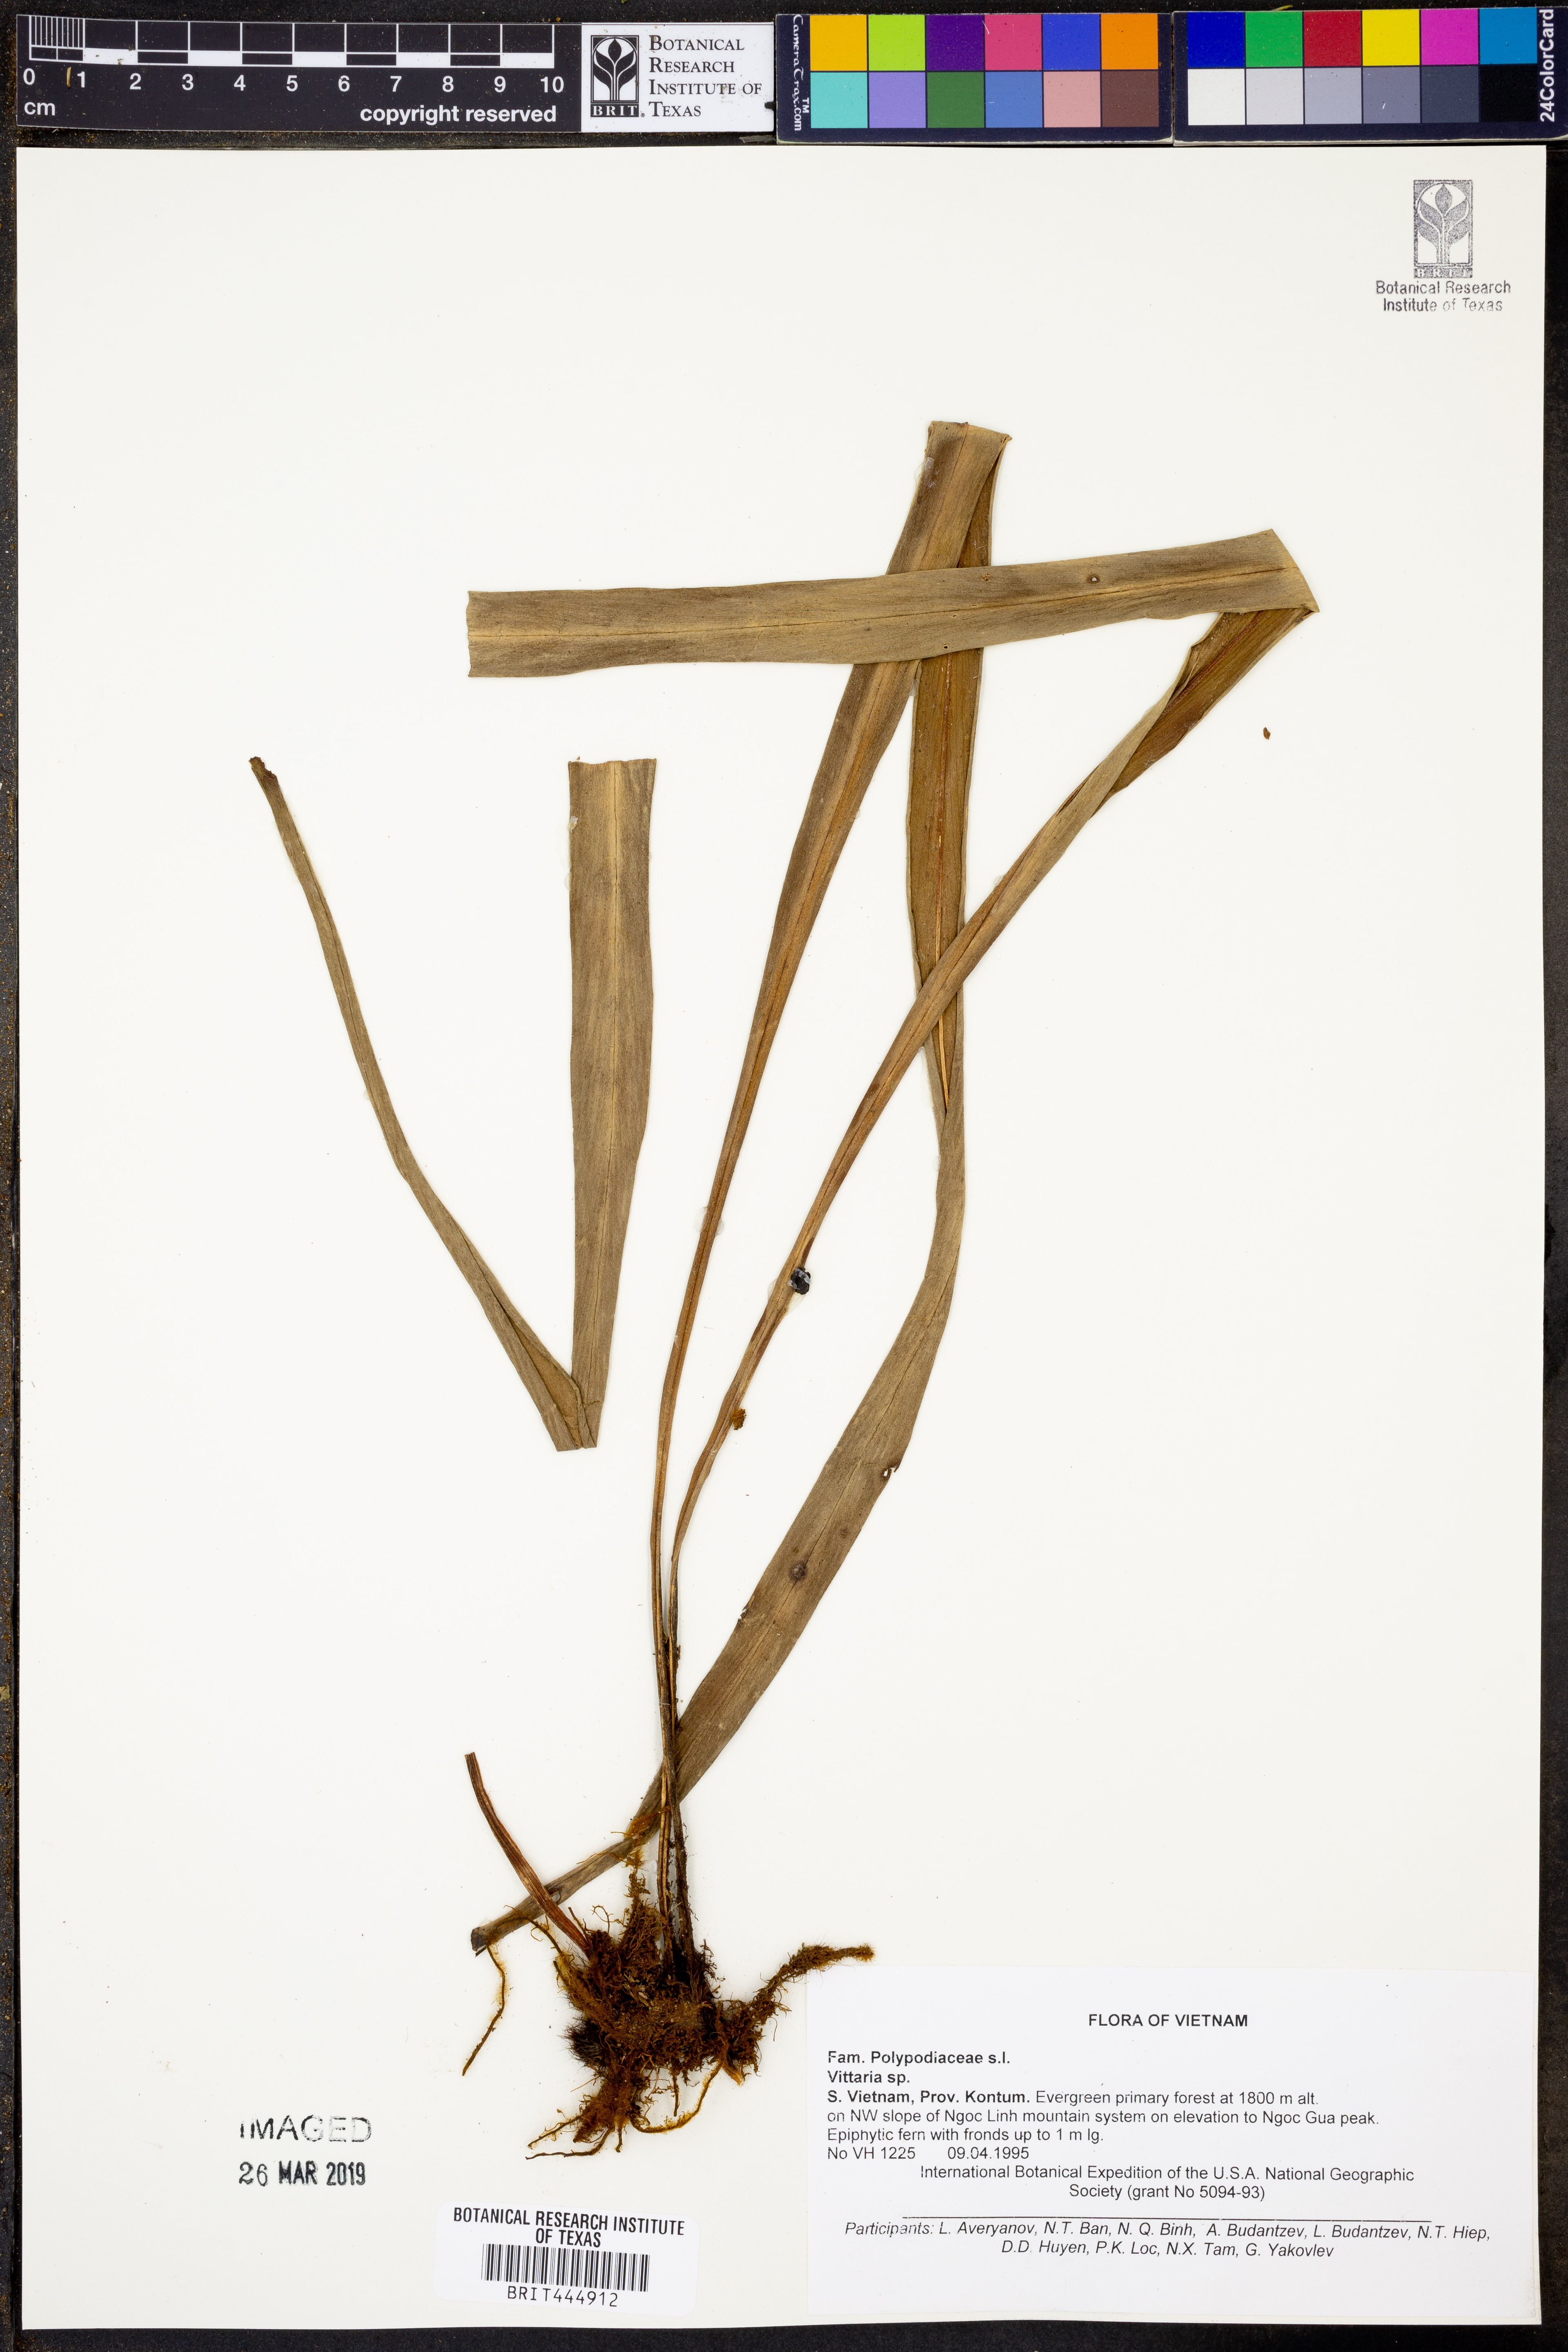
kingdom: Plantae
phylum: Tracheophyta
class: Polypodiopsida
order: Polypodiales
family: Pteridaceae
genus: Vittaria
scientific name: Vittaria
